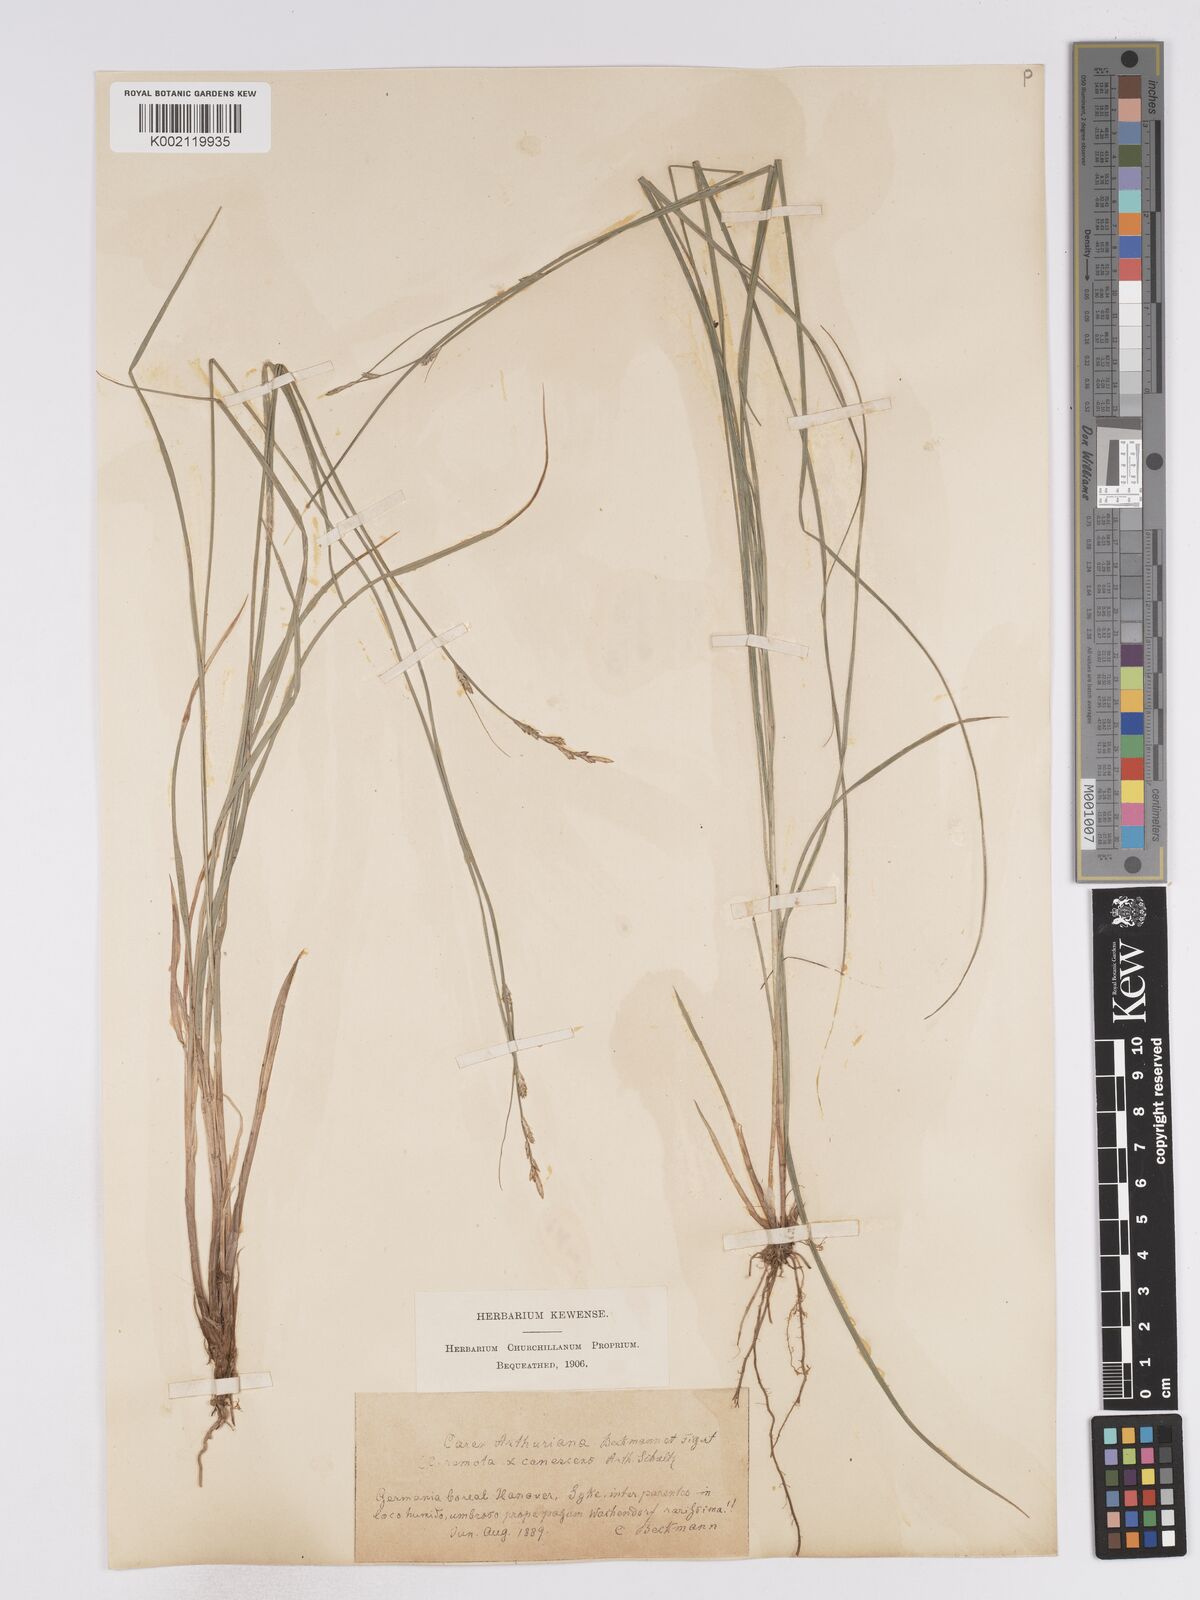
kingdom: Plantae
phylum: Tracheophyta
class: Liliopsida
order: Poales
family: Cyperaceae
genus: Carex
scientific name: Carex curta
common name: White sedge
